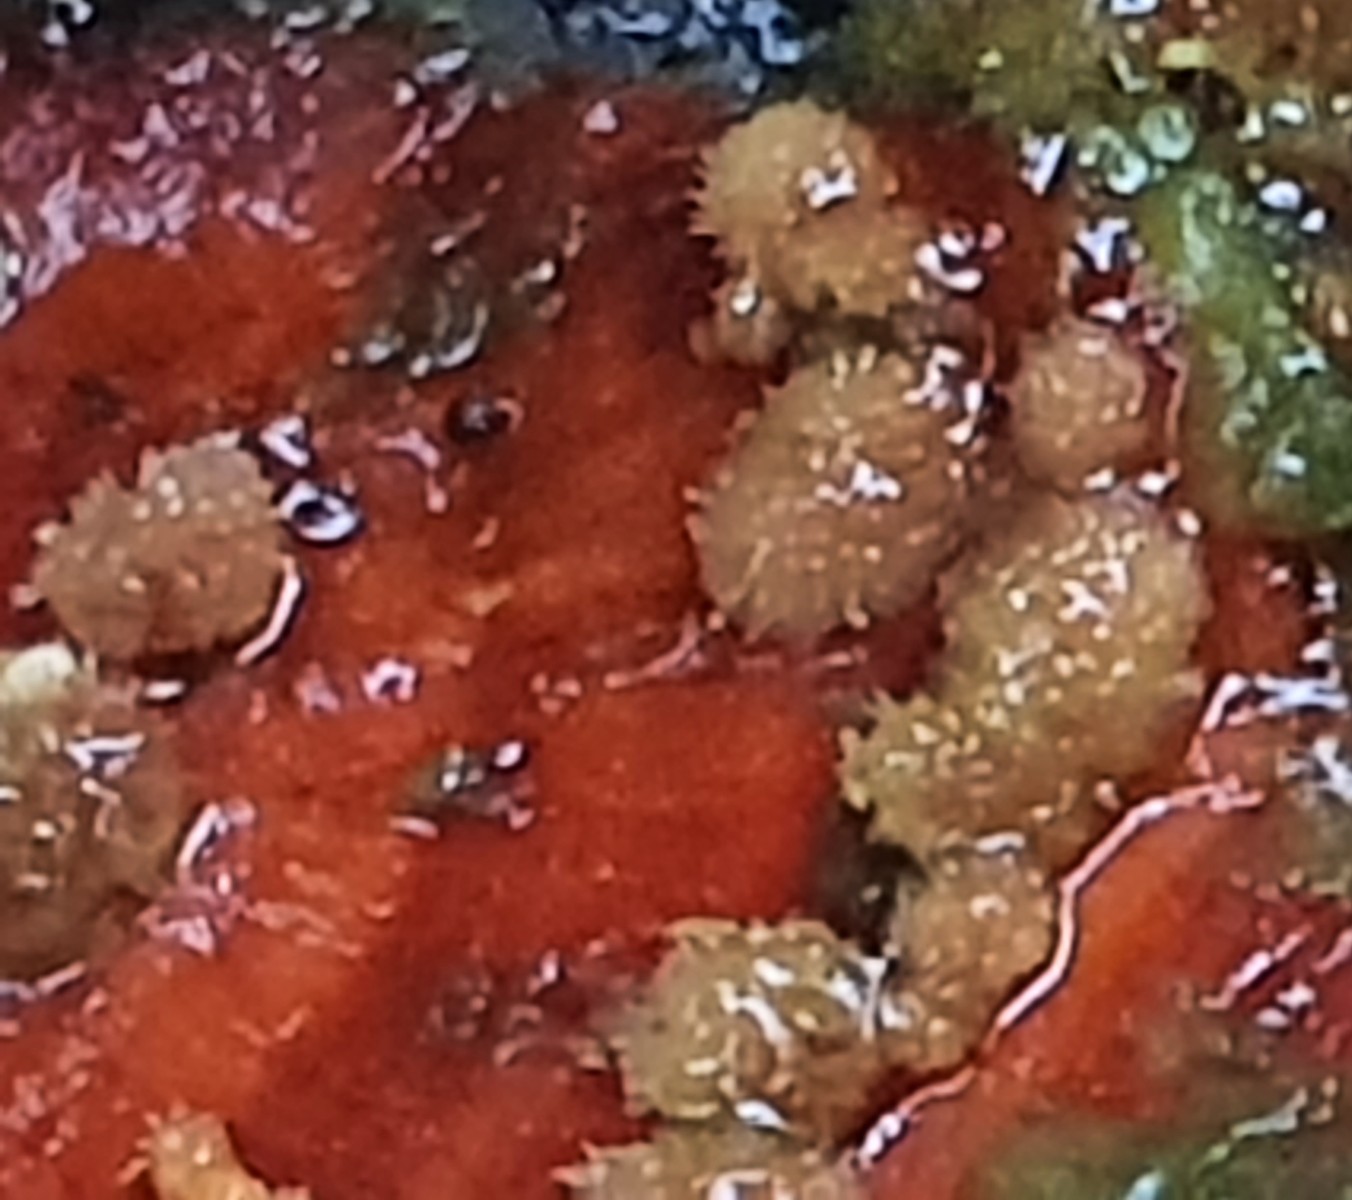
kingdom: Fungi
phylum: Basidiomycota
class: Agaricomycetes
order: Russulales
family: Stereaceae
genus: Stereum
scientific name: Stereum subtomentosum
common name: smuk lædersvamp
